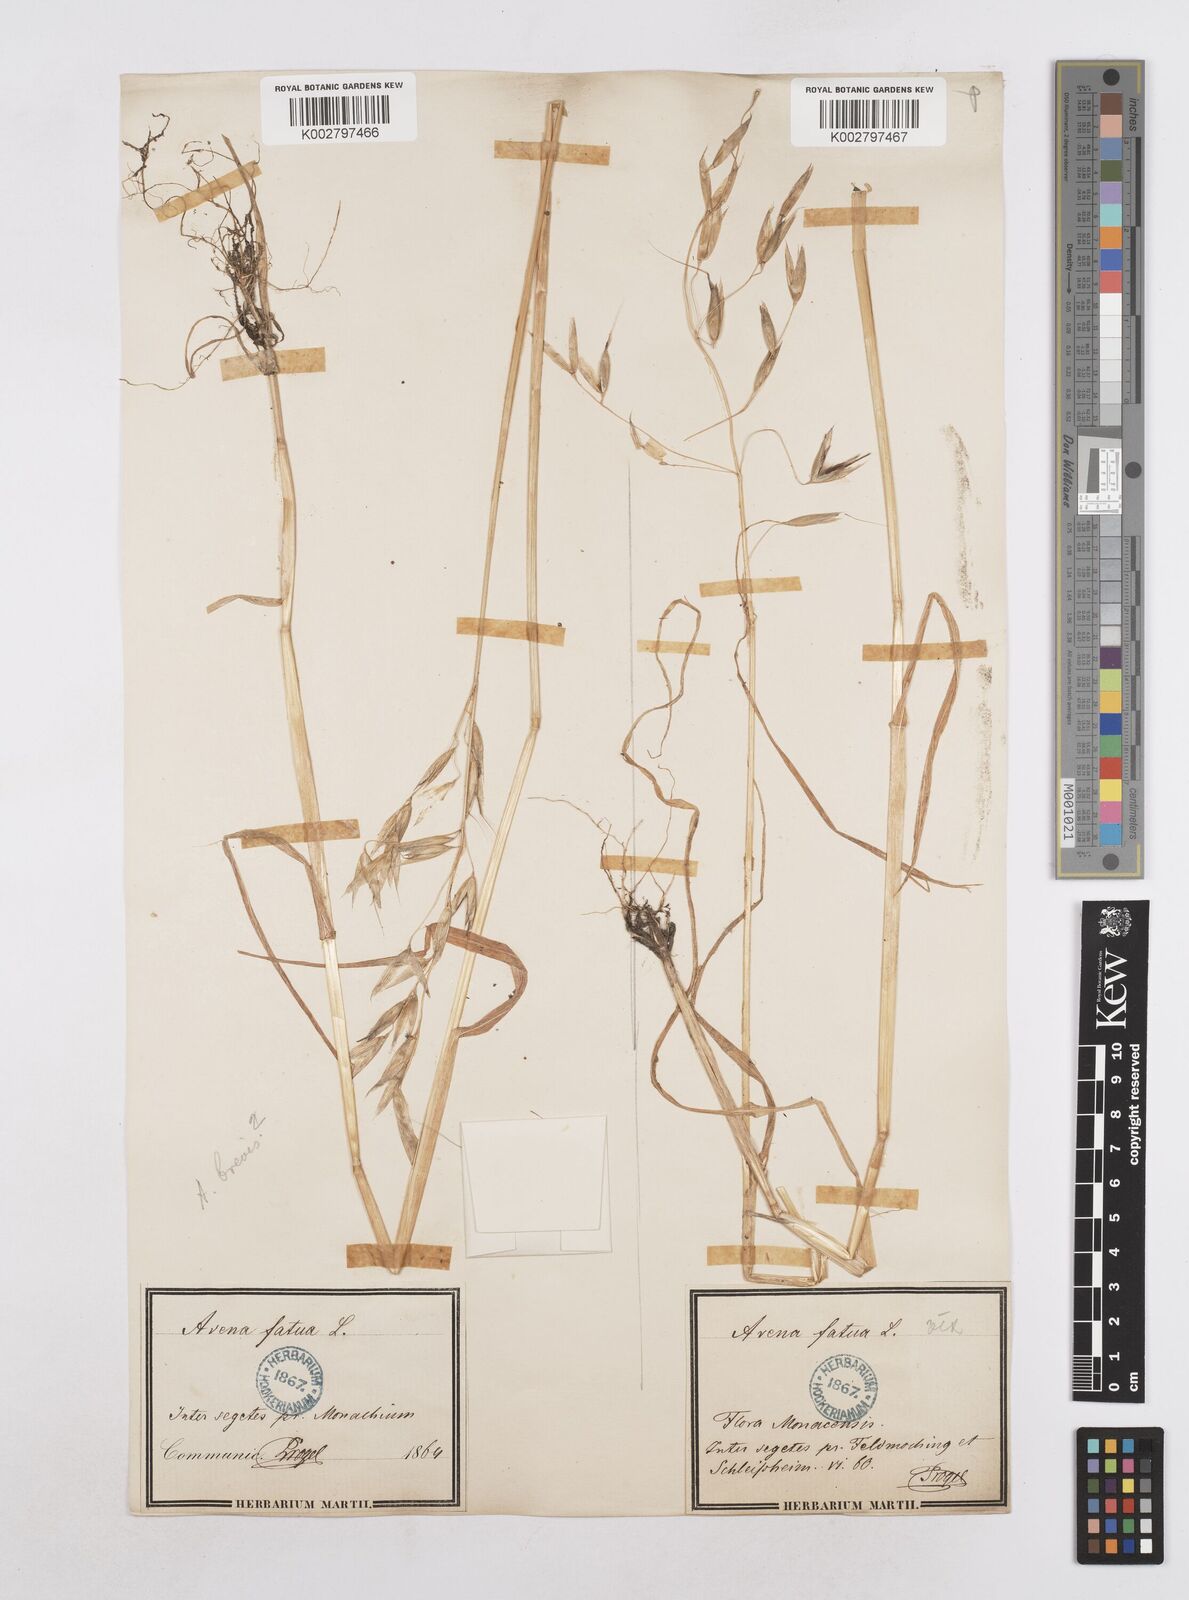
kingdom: Plantae
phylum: Tracheophyta
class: Liliopsida
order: Poales
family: Poaceae
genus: Avena
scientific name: Avena fatua
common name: Wild oat
